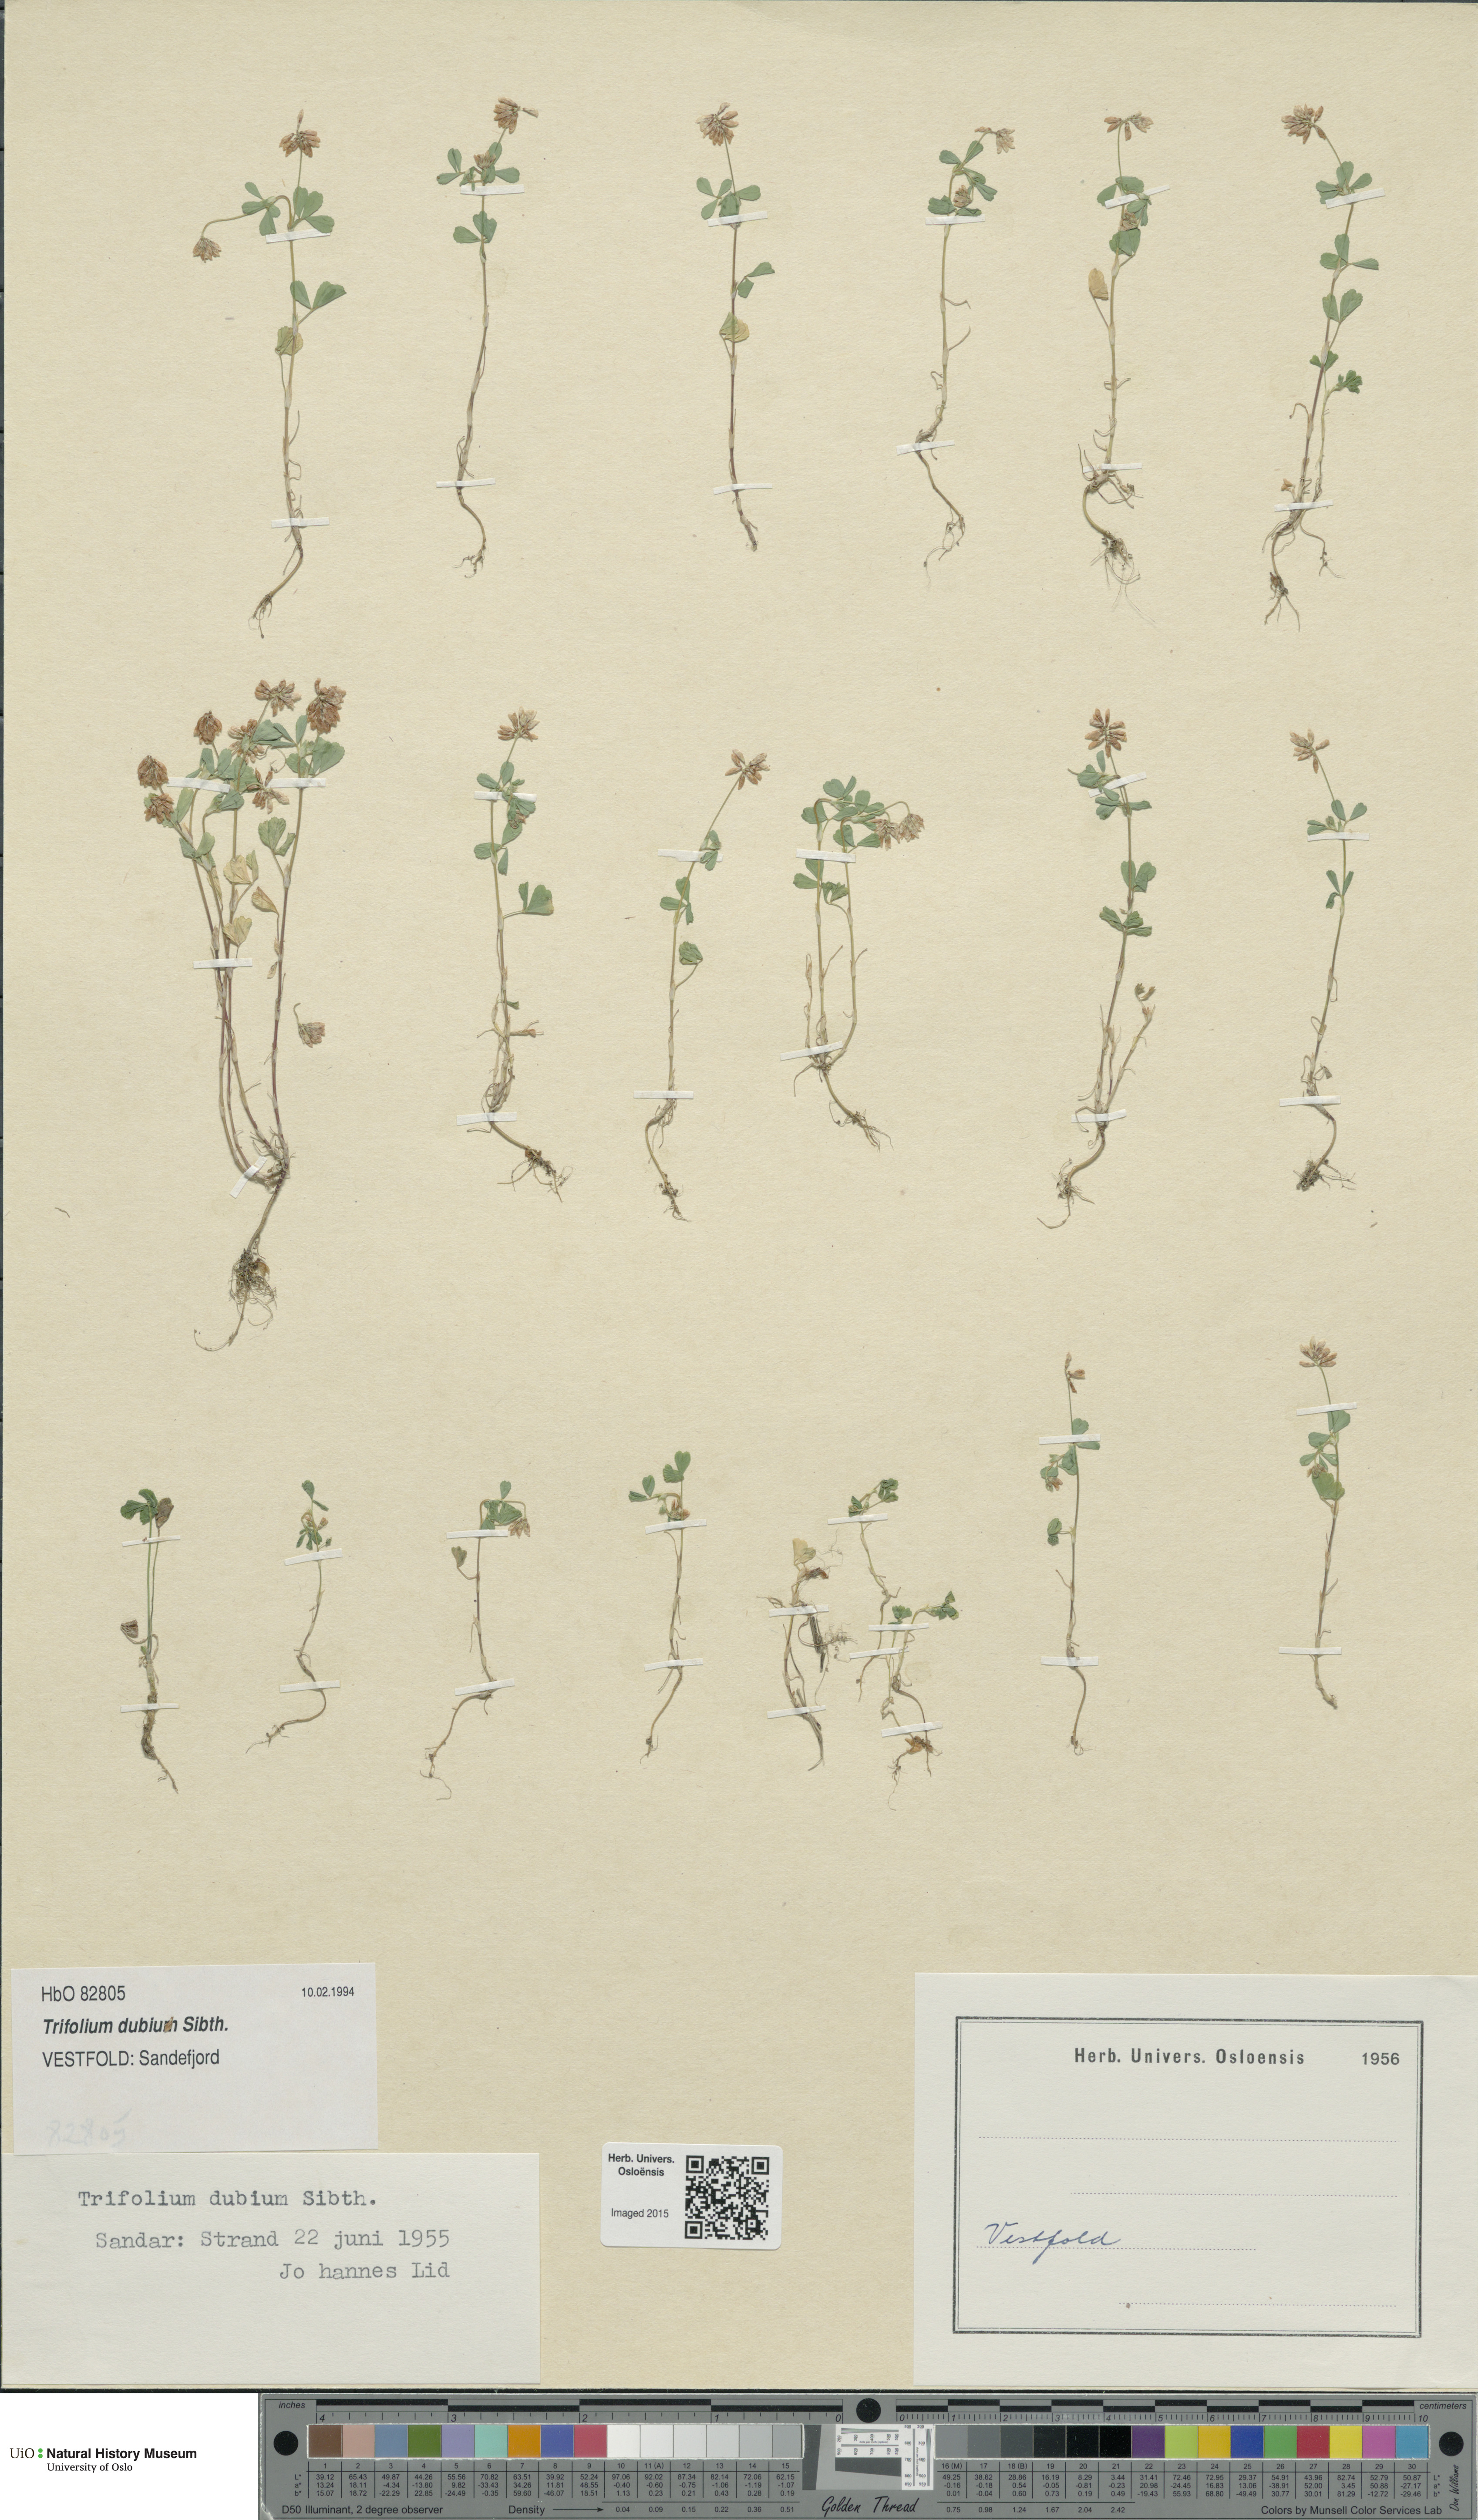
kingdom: Plantae
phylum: Tracheophyta
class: Magnoliopsida
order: Fabales
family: Fabaceae
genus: Trifolium
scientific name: Trifolium dubium
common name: Suckling clover
